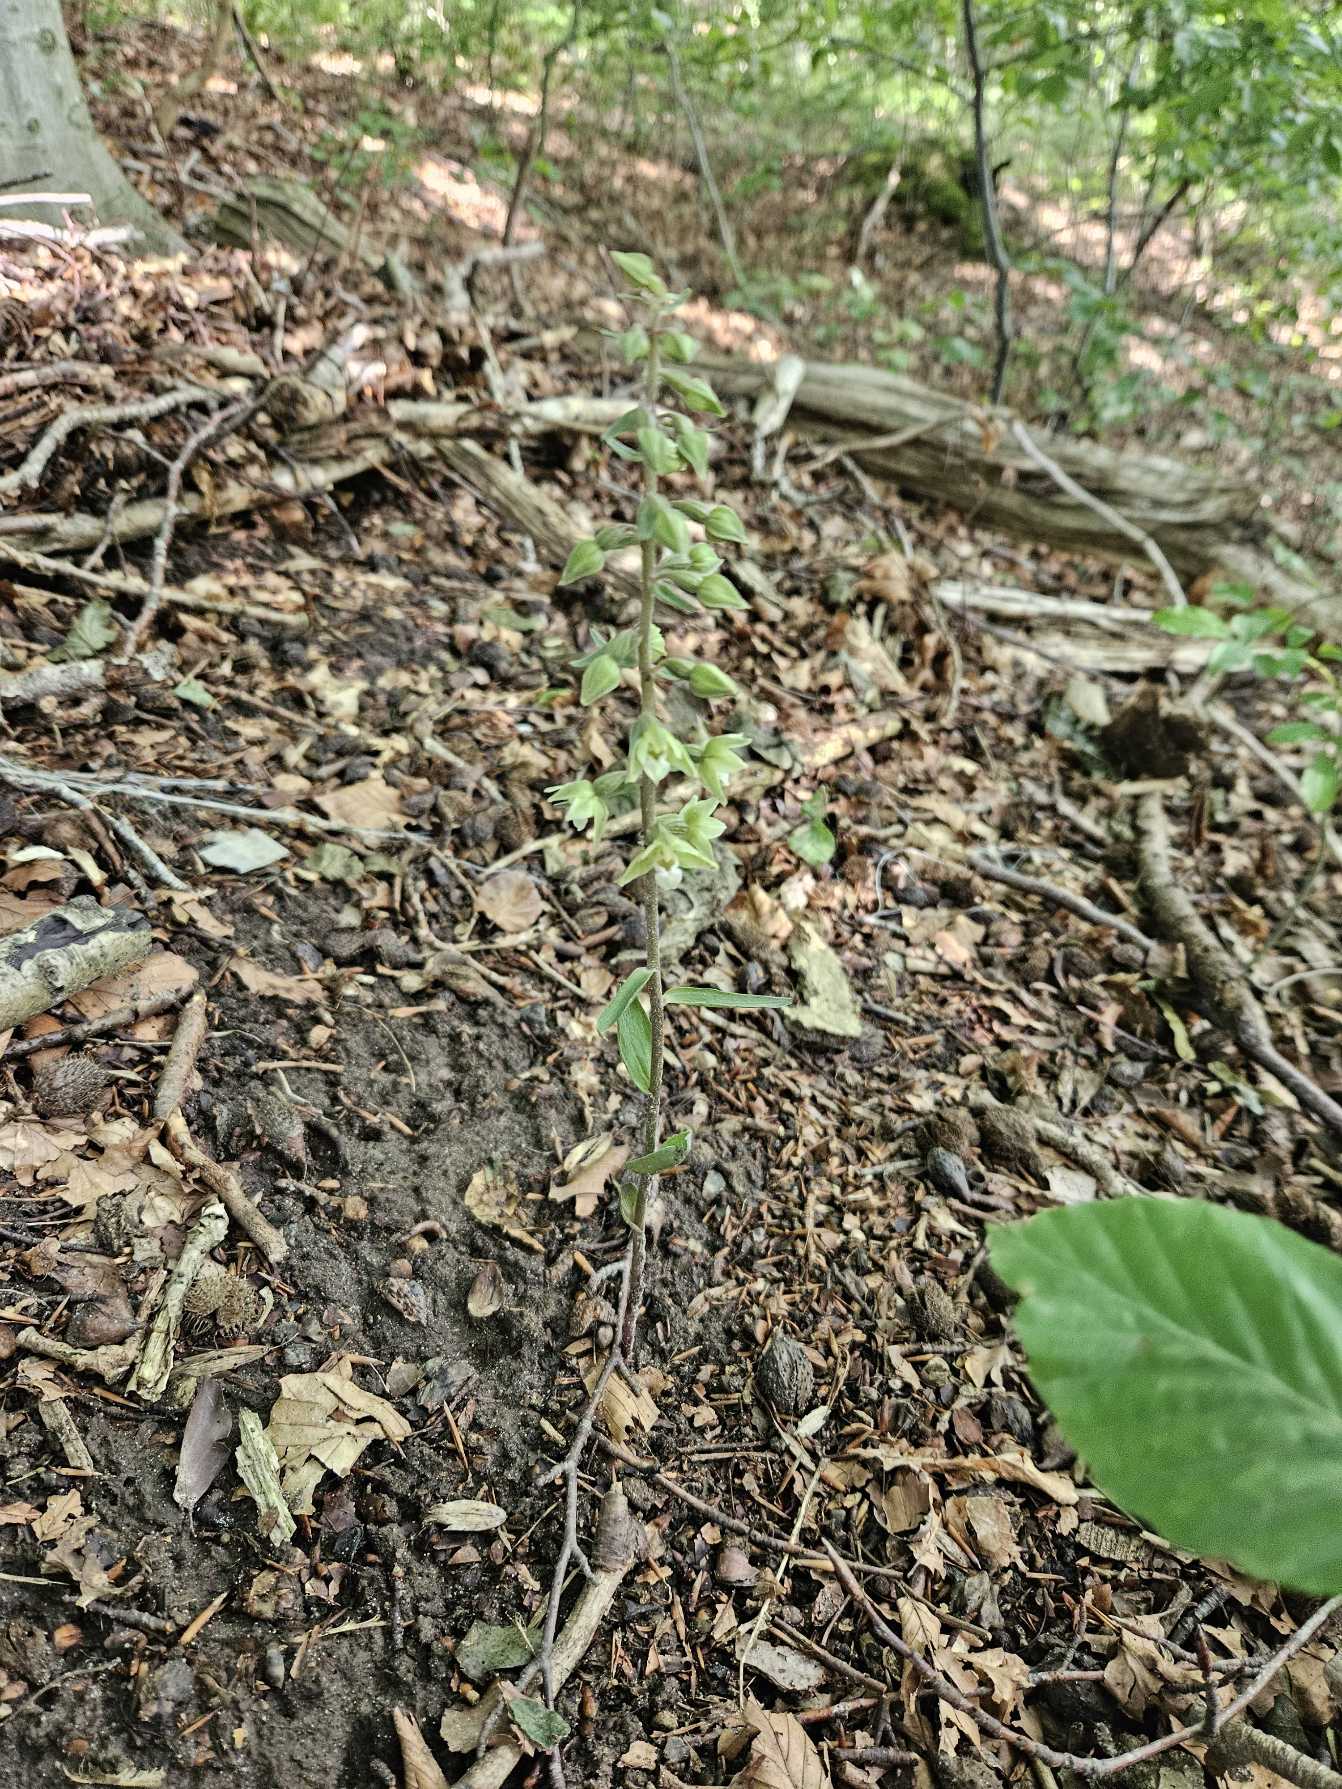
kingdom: Plantae
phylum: Tracheophyta
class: Liliopsida
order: Asparagales
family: Orchidaceae
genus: Epipactis
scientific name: Epipactis purpurata
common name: Tætblomstret hullæbe
